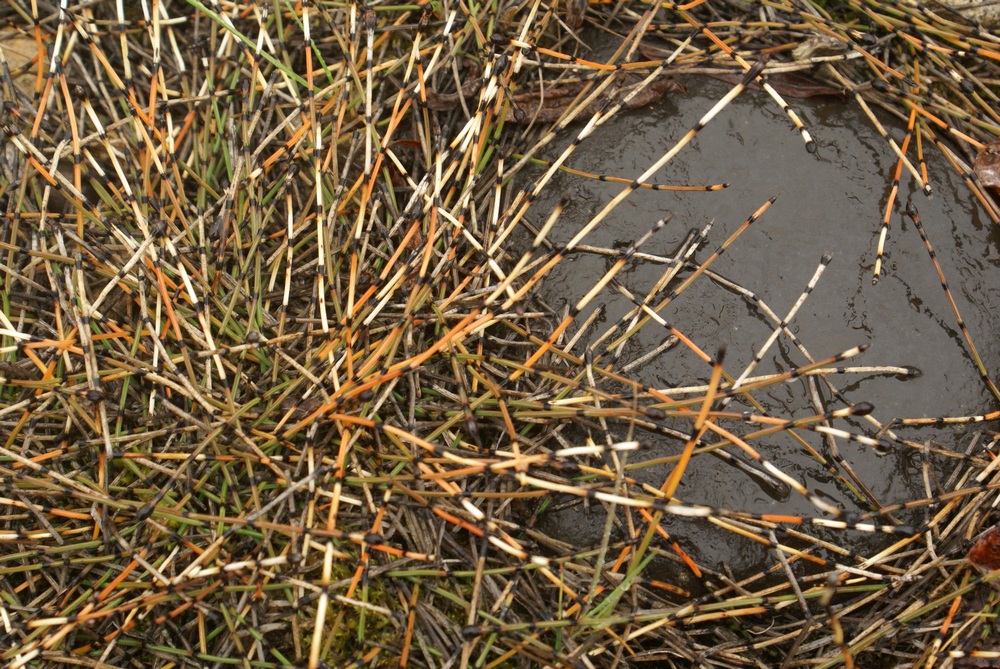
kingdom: Plantae
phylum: Tracheophyta
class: Polypodiopsida
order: Equisetales
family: Equisetaceae
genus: Equisetum
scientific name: Equisetum fluviatile
